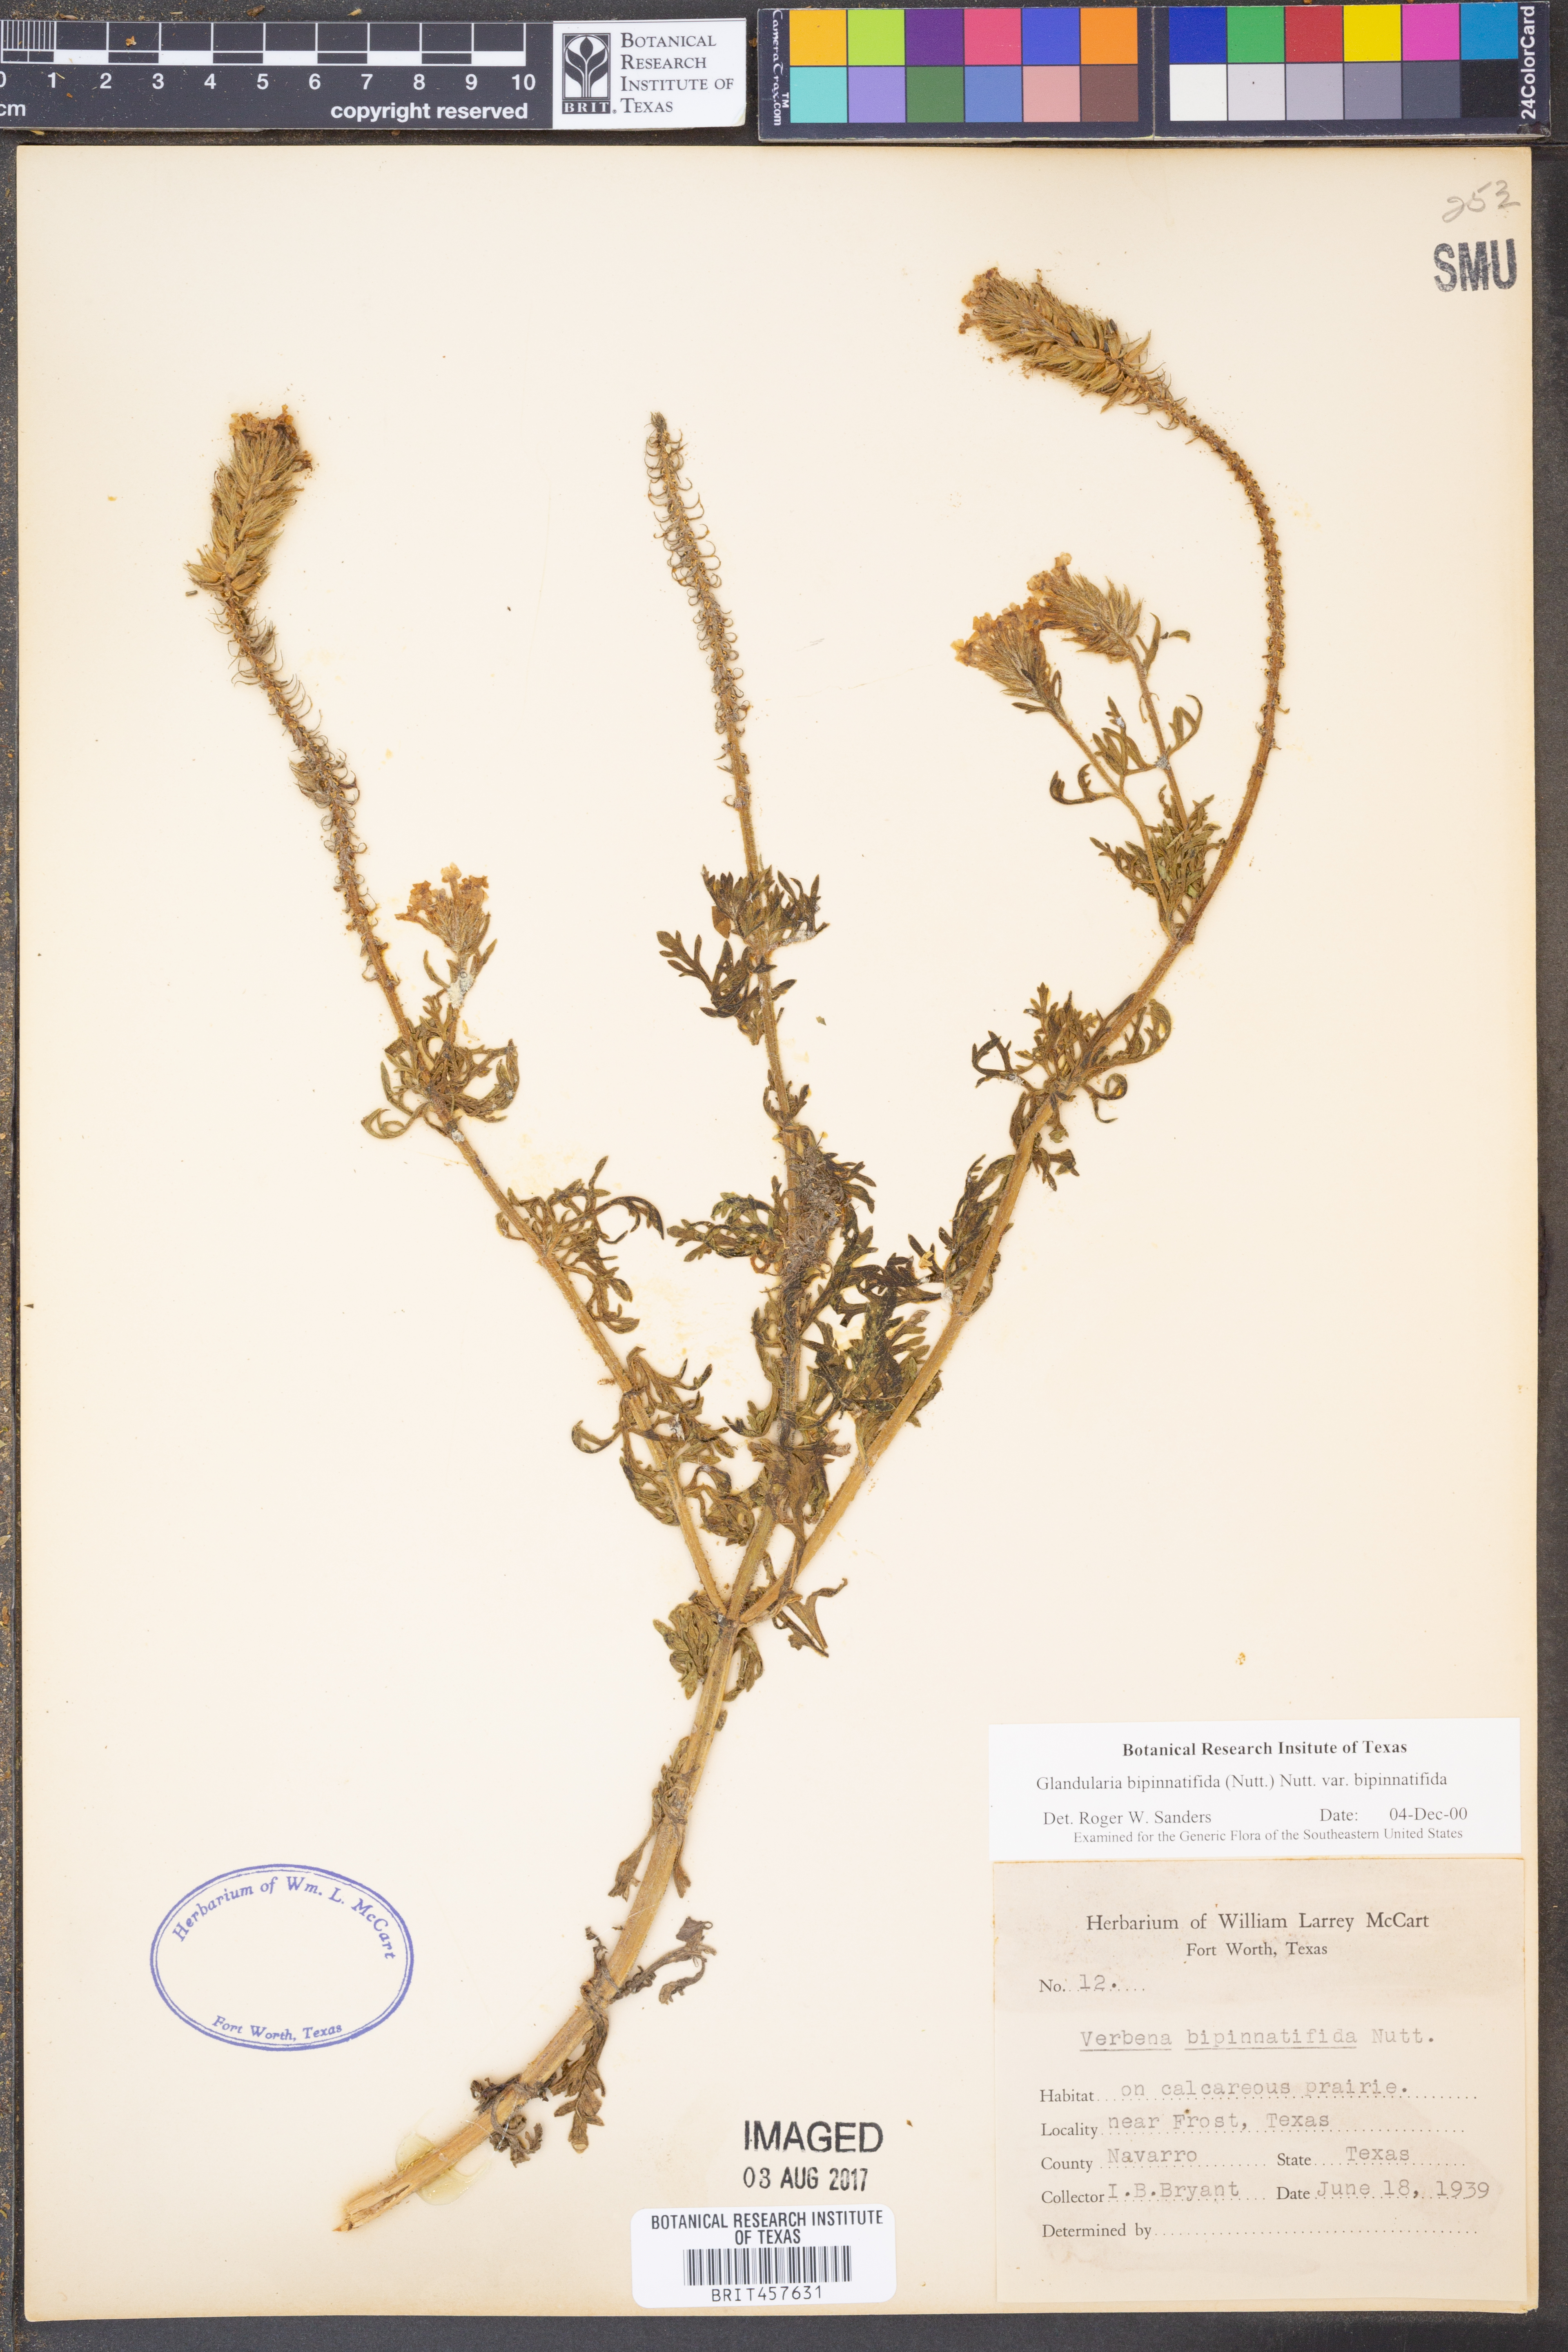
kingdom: Plantae
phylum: Tracheophyta
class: Magnoliopsida
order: Lamiales
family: Verbenaceae
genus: Verbena
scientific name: Verbena bipinnatifida
